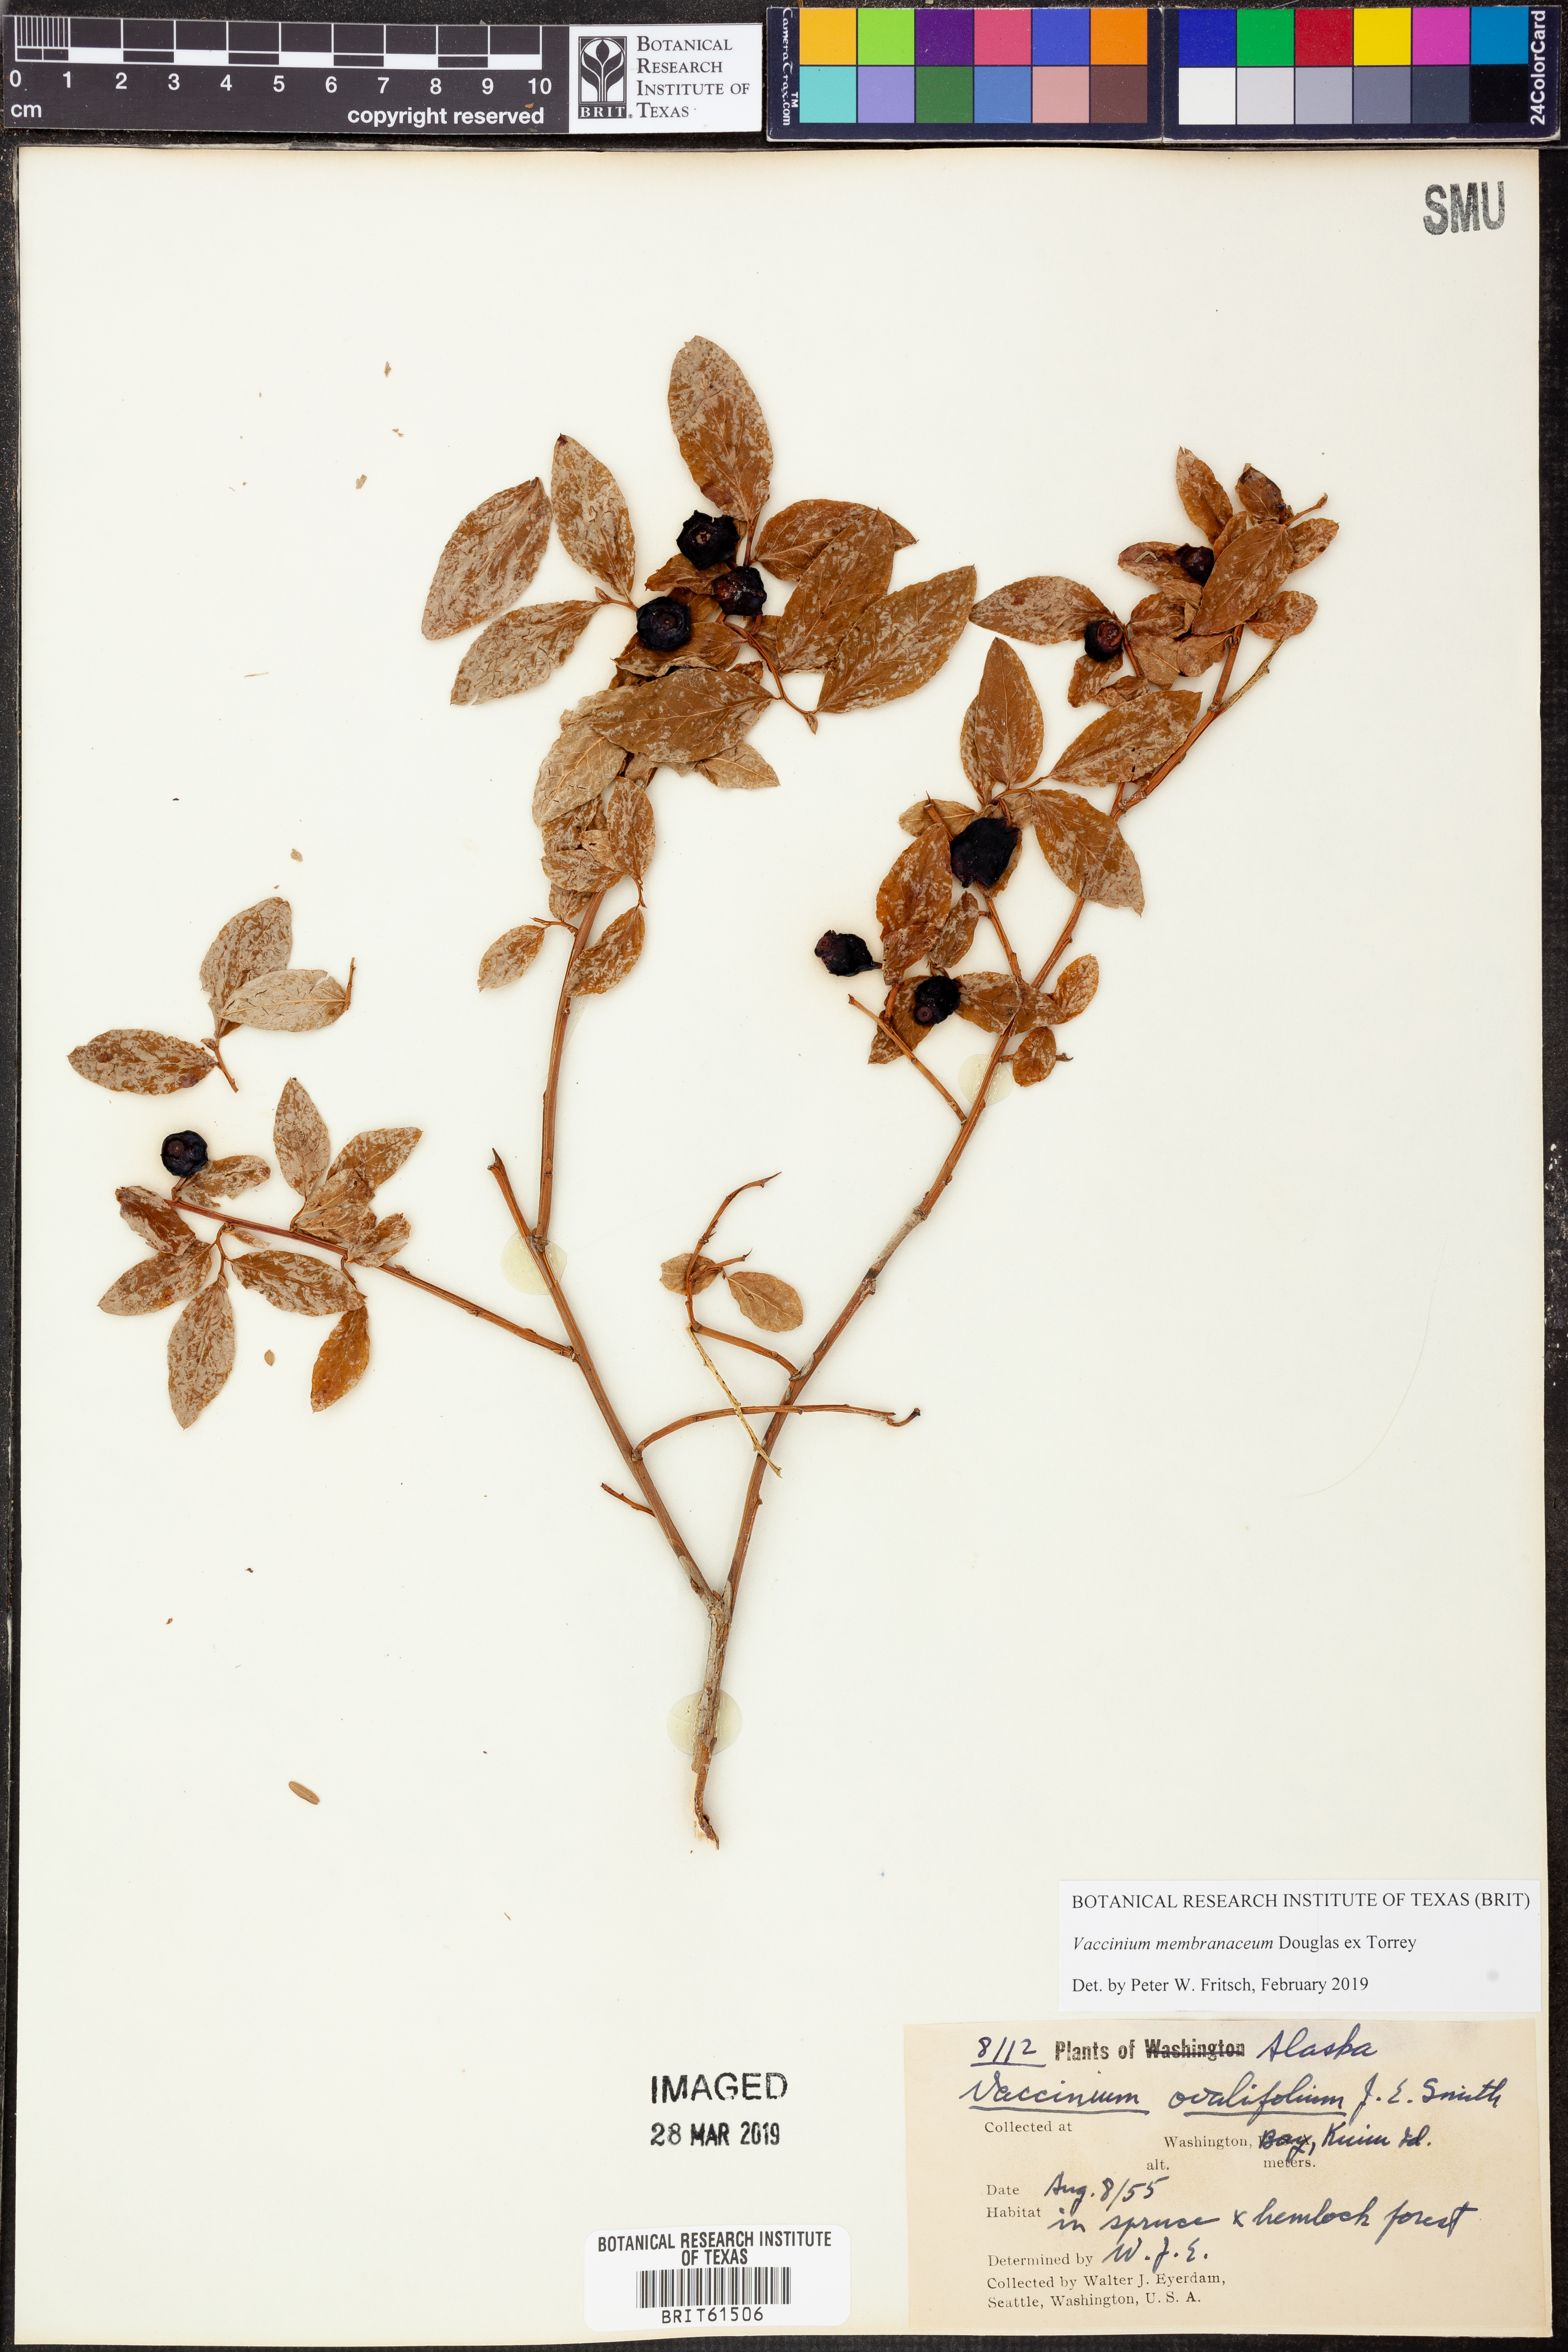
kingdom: Plantae
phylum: Tracheophyta
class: Magnoliopsida
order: Ericales
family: Ericaceae
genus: Vaccinium
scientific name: Vaccinium membranaceum
